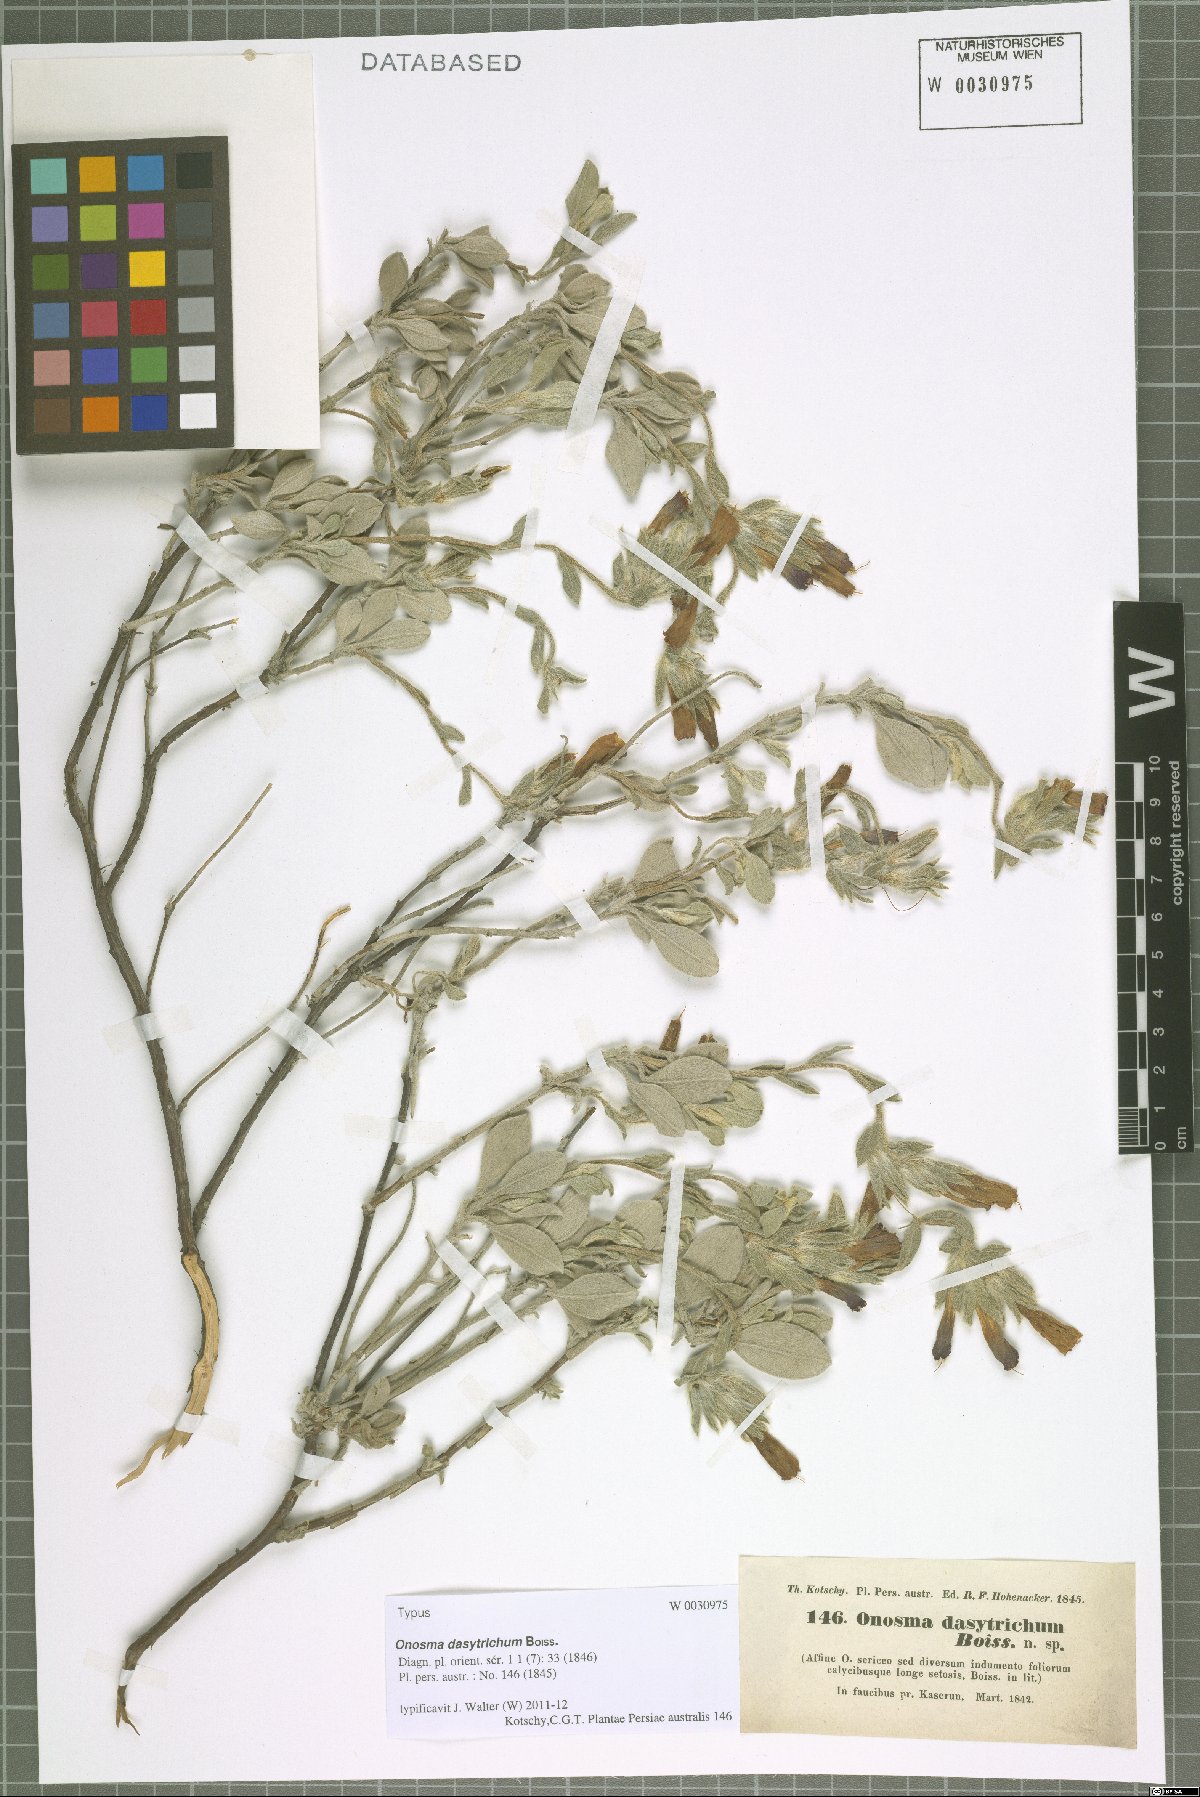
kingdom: Plantae
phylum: Tracheophyta
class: Magnoliopsida
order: Boraginales
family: Boraginaceae
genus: Onosma
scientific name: Onosma dasytricha
